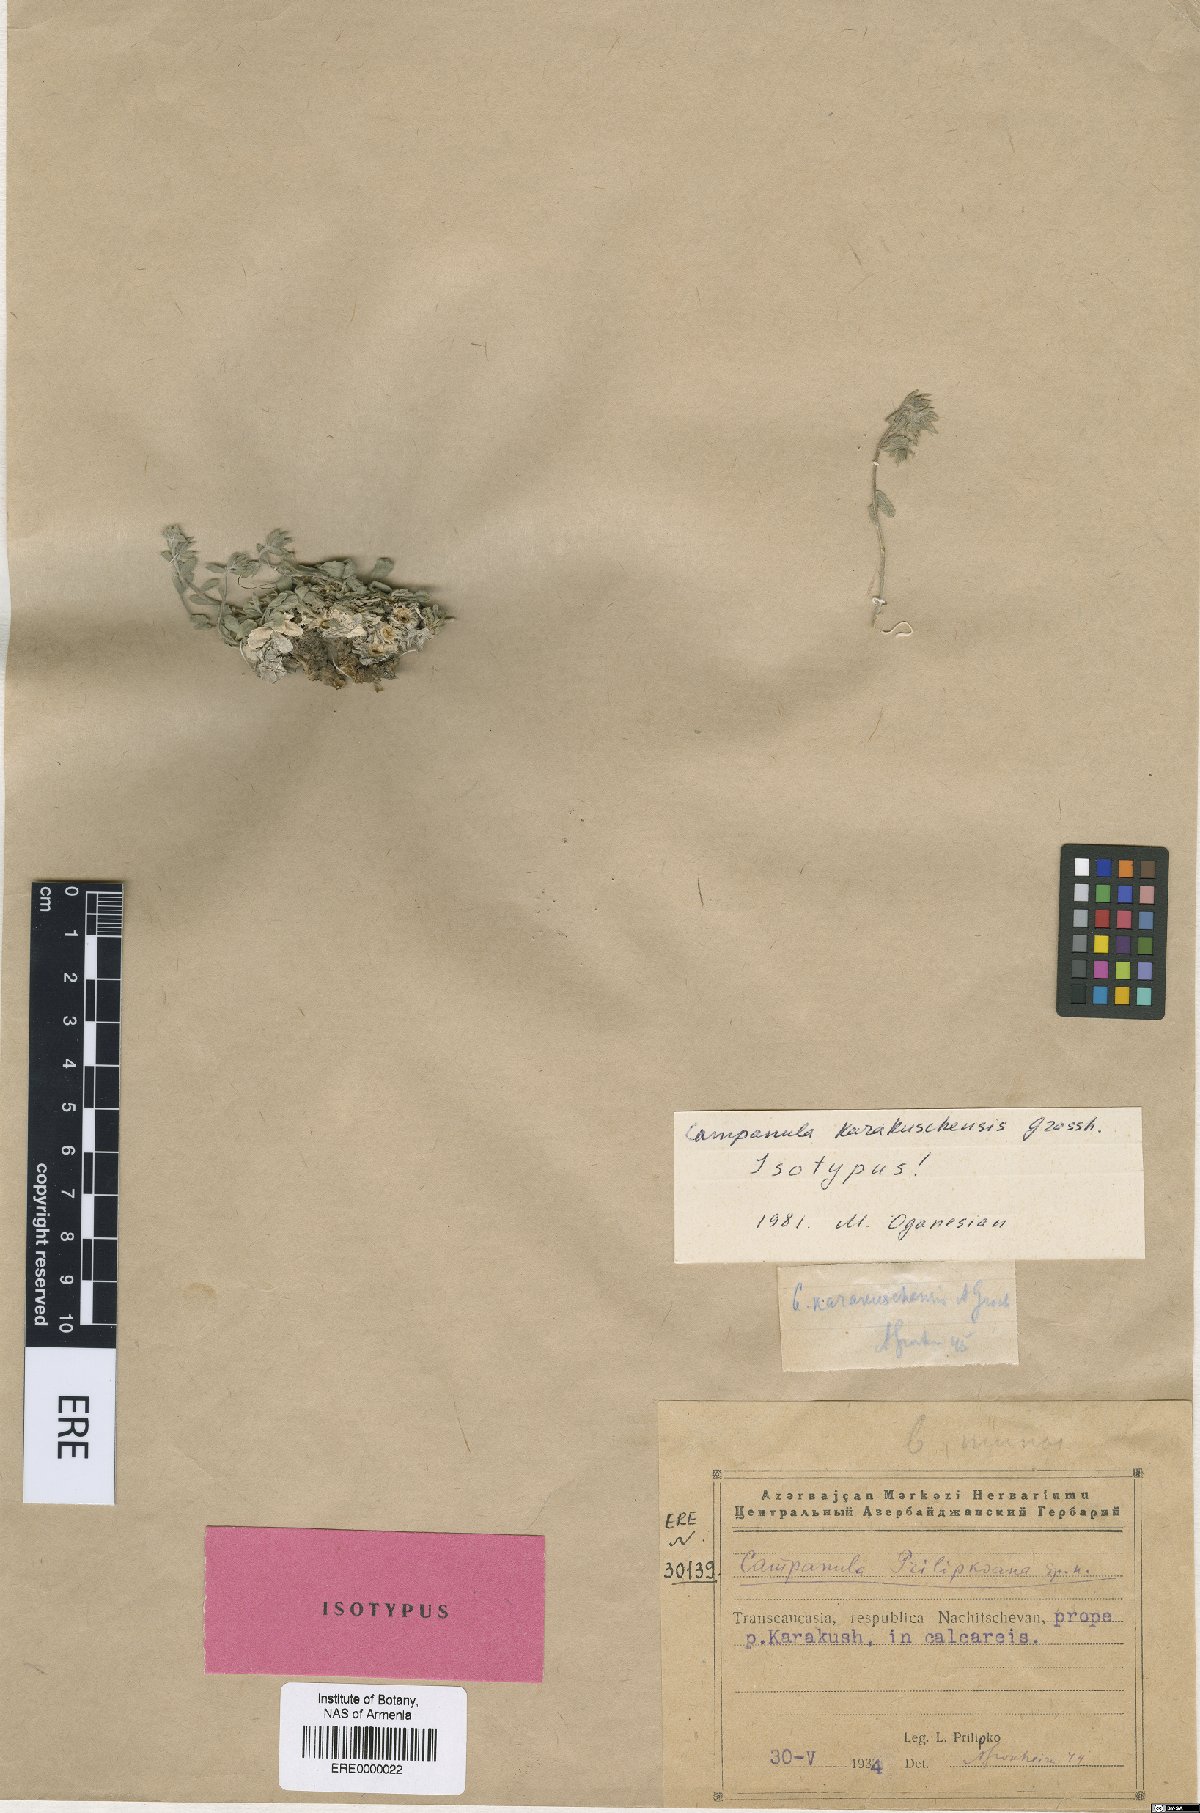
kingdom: Plantae
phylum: Tracheophyta
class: Magnoliopsida
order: Asterales
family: Campanulaceae
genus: Campanula
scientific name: Campanula karakuschensis
